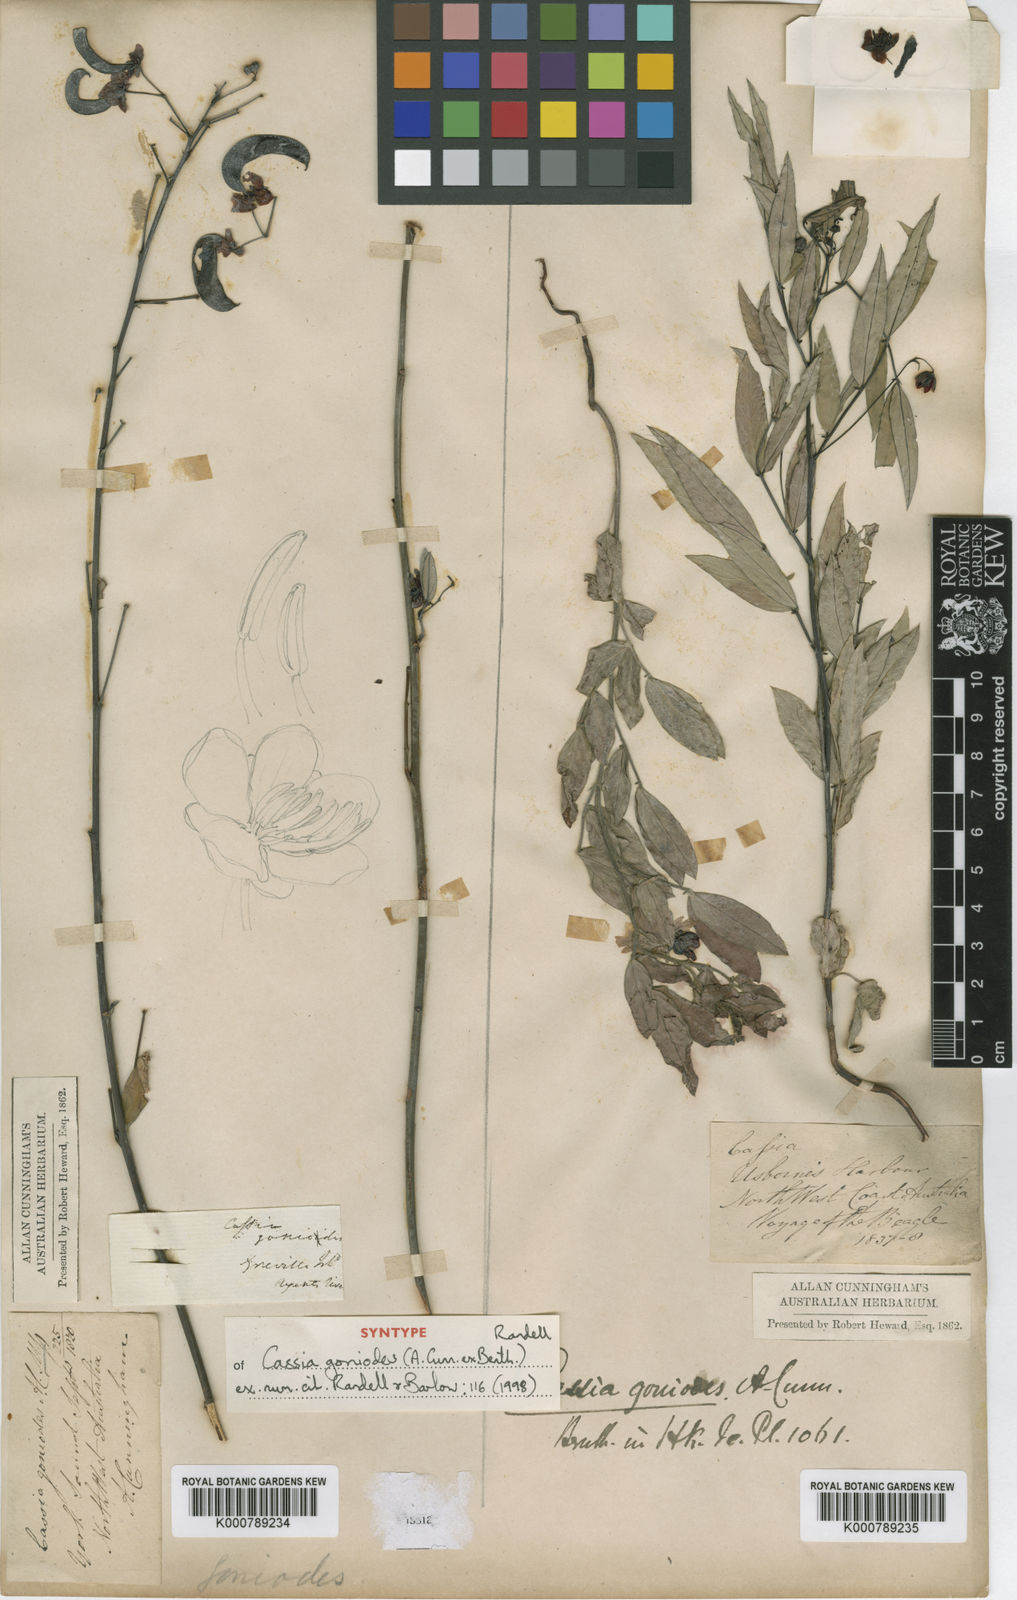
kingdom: Plantae
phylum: Tracheophyta
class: Magnoliopsida
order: Fabales
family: Fabaceae
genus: Senna
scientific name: Senna goniodes
